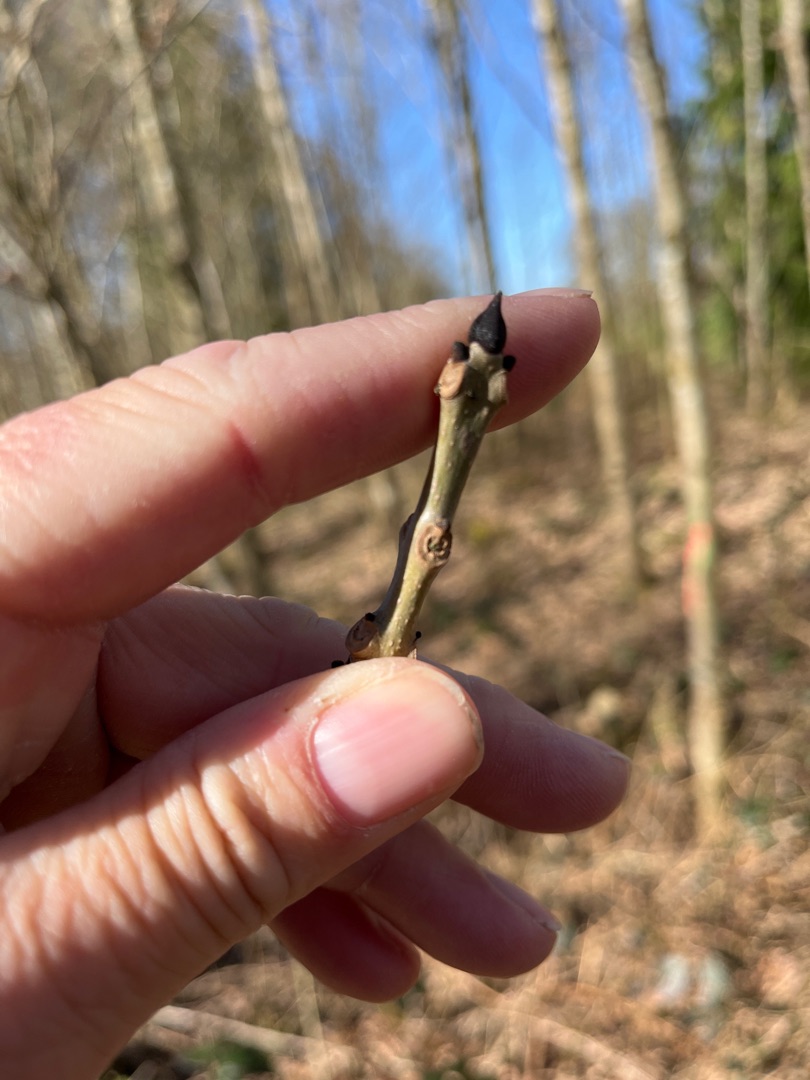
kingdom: Plantae
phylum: Tracheophyta
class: Magnoliopsida
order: Lamiales
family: Oleaceae
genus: Fraxinus
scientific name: Fraxinus excelsior
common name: Ask
